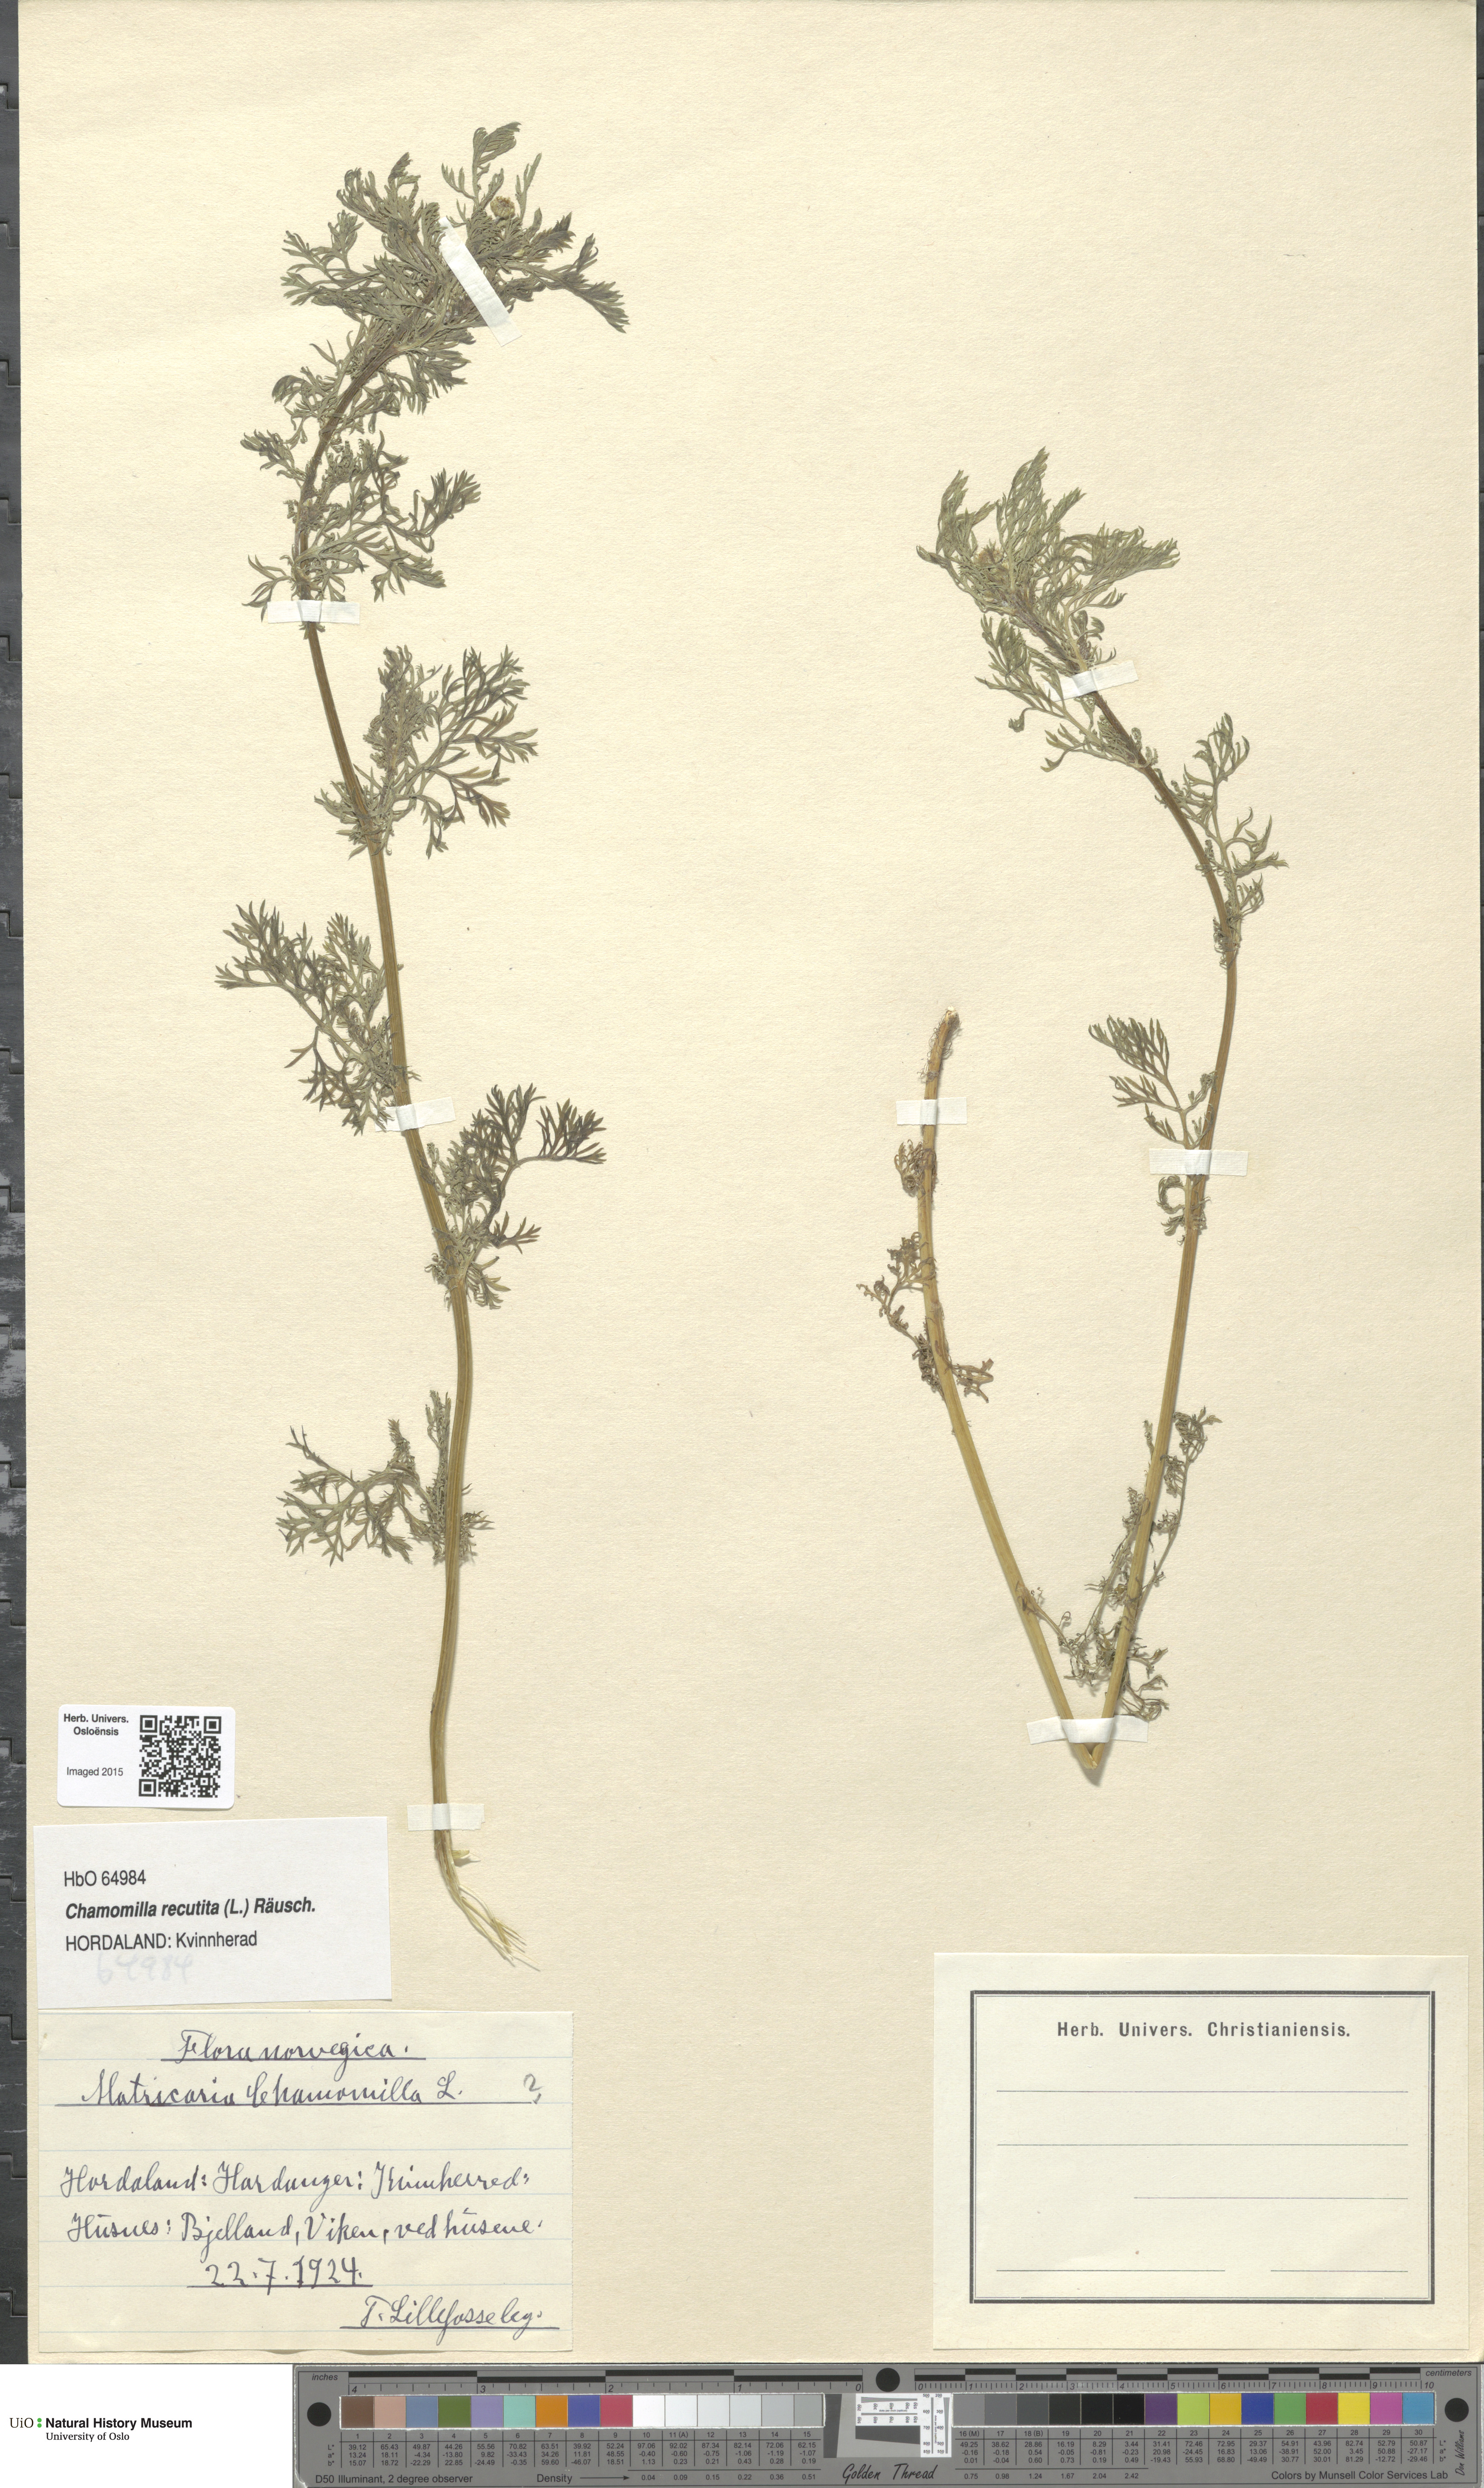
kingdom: Plantae
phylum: Tracheophyta
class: Magnoliopsida
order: Asterales
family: Asteraceae
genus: Matricaria
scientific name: Matricaria chamomilla
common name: Scented mayweed
